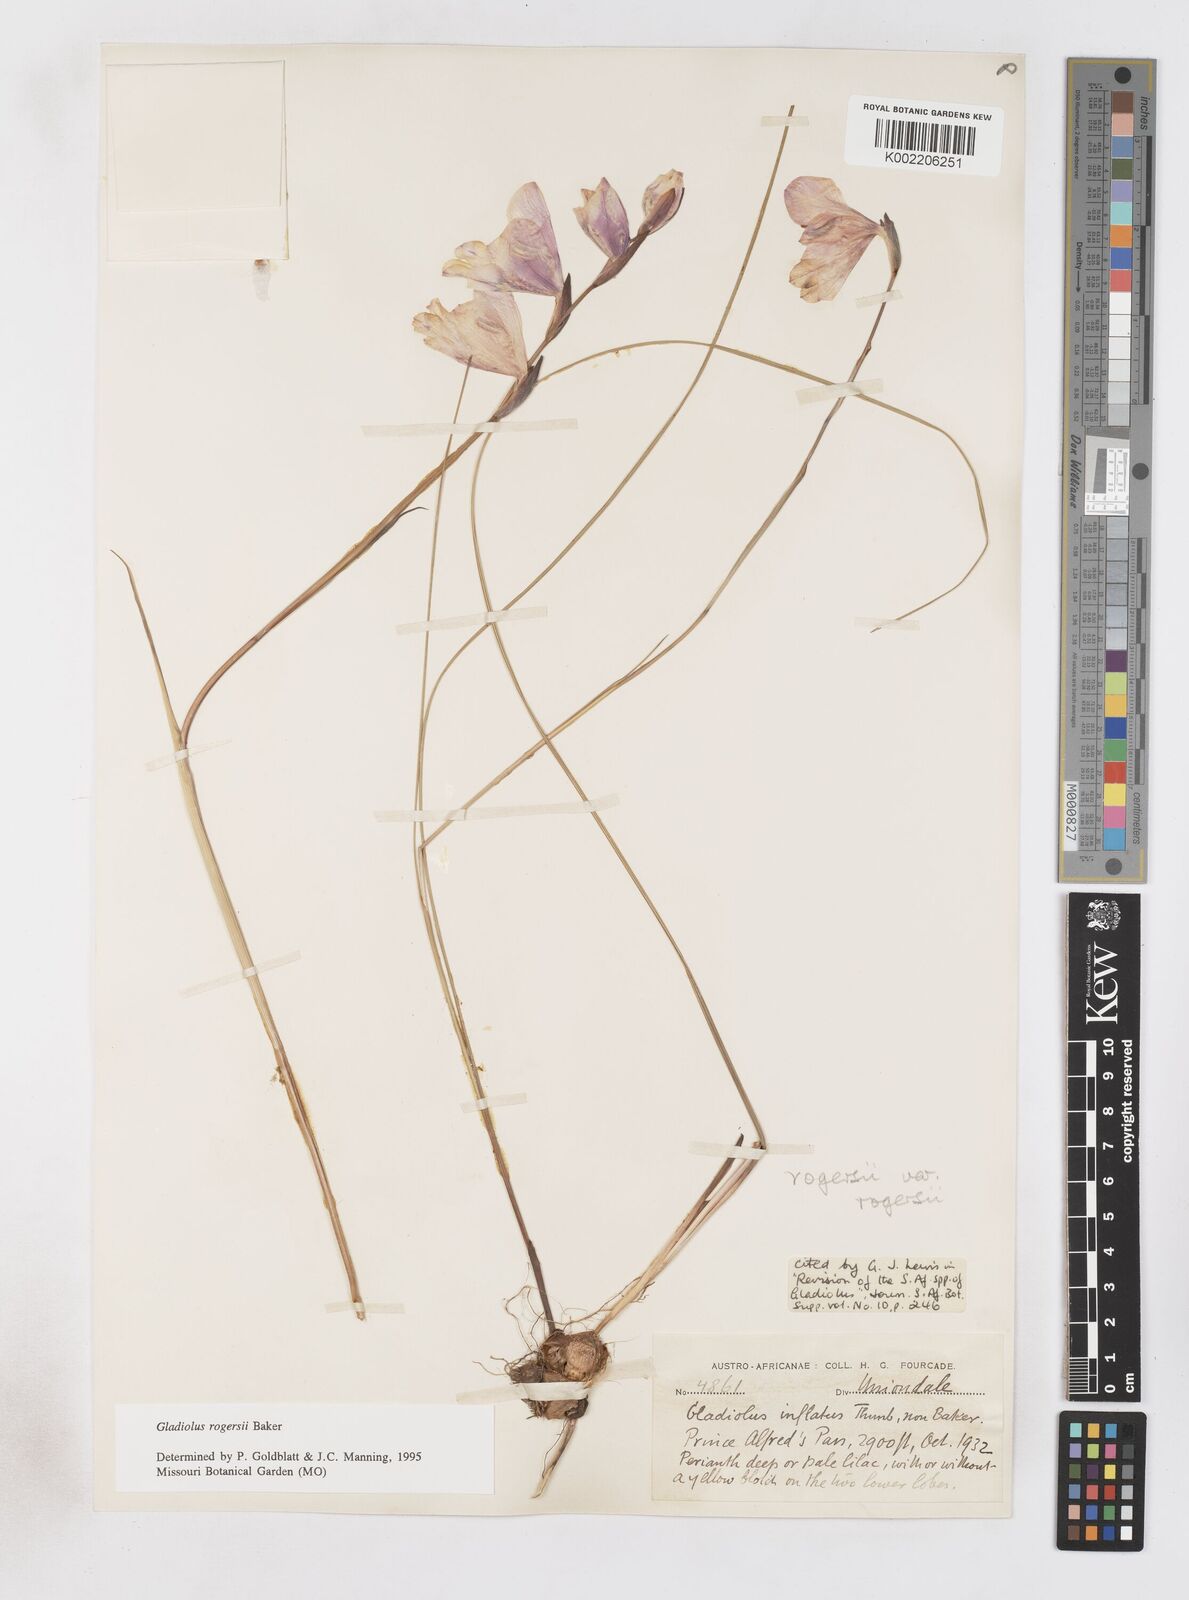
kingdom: Plantae
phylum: Tracheophyta
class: Liliopsida
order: Asparagales
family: Iridaceae
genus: Gladiolus
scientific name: Gladiolus rogersii
